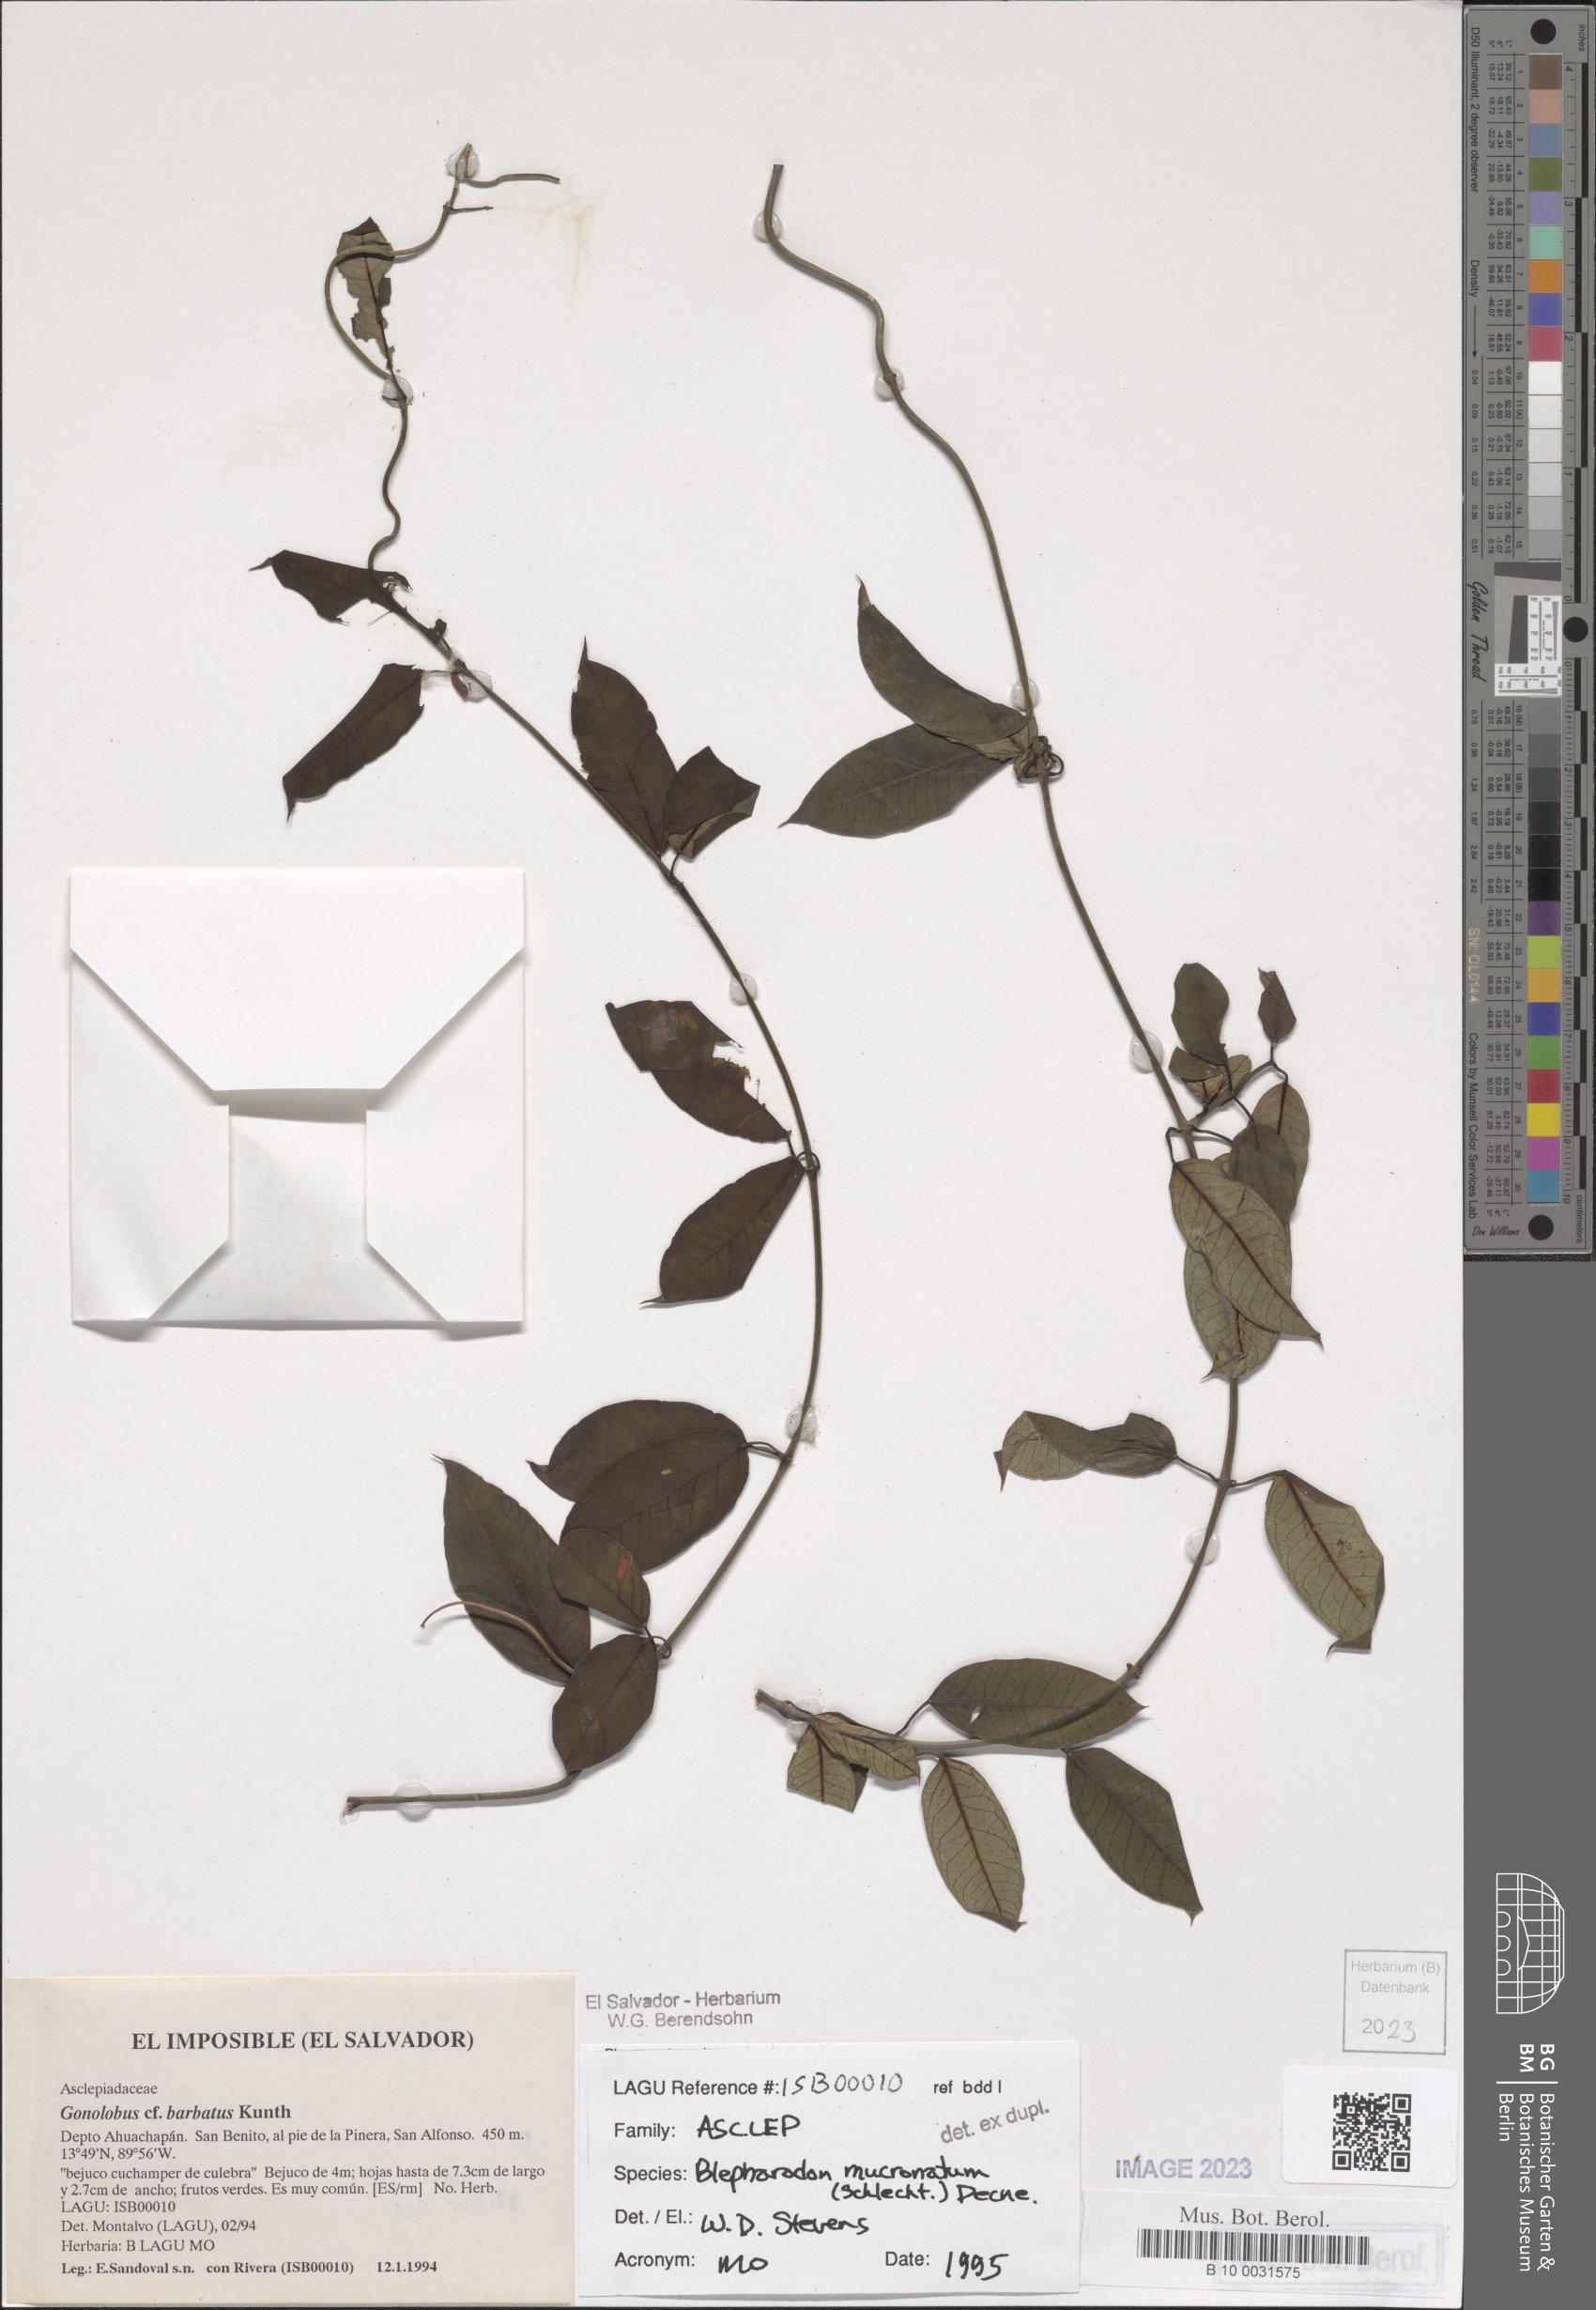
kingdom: Plantae
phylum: Tracheophyta
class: Magnoliopsida
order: Gentianales
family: Apocynaceae
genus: Vailia
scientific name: Vailia anomala
